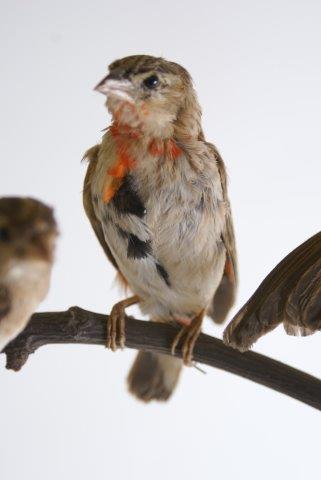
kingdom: Animalia
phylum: Chordata
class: Aves
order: Passeriformes
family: Ploceidae
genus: Euplectes
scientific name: Euplectes orix
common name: Southern red bishop
